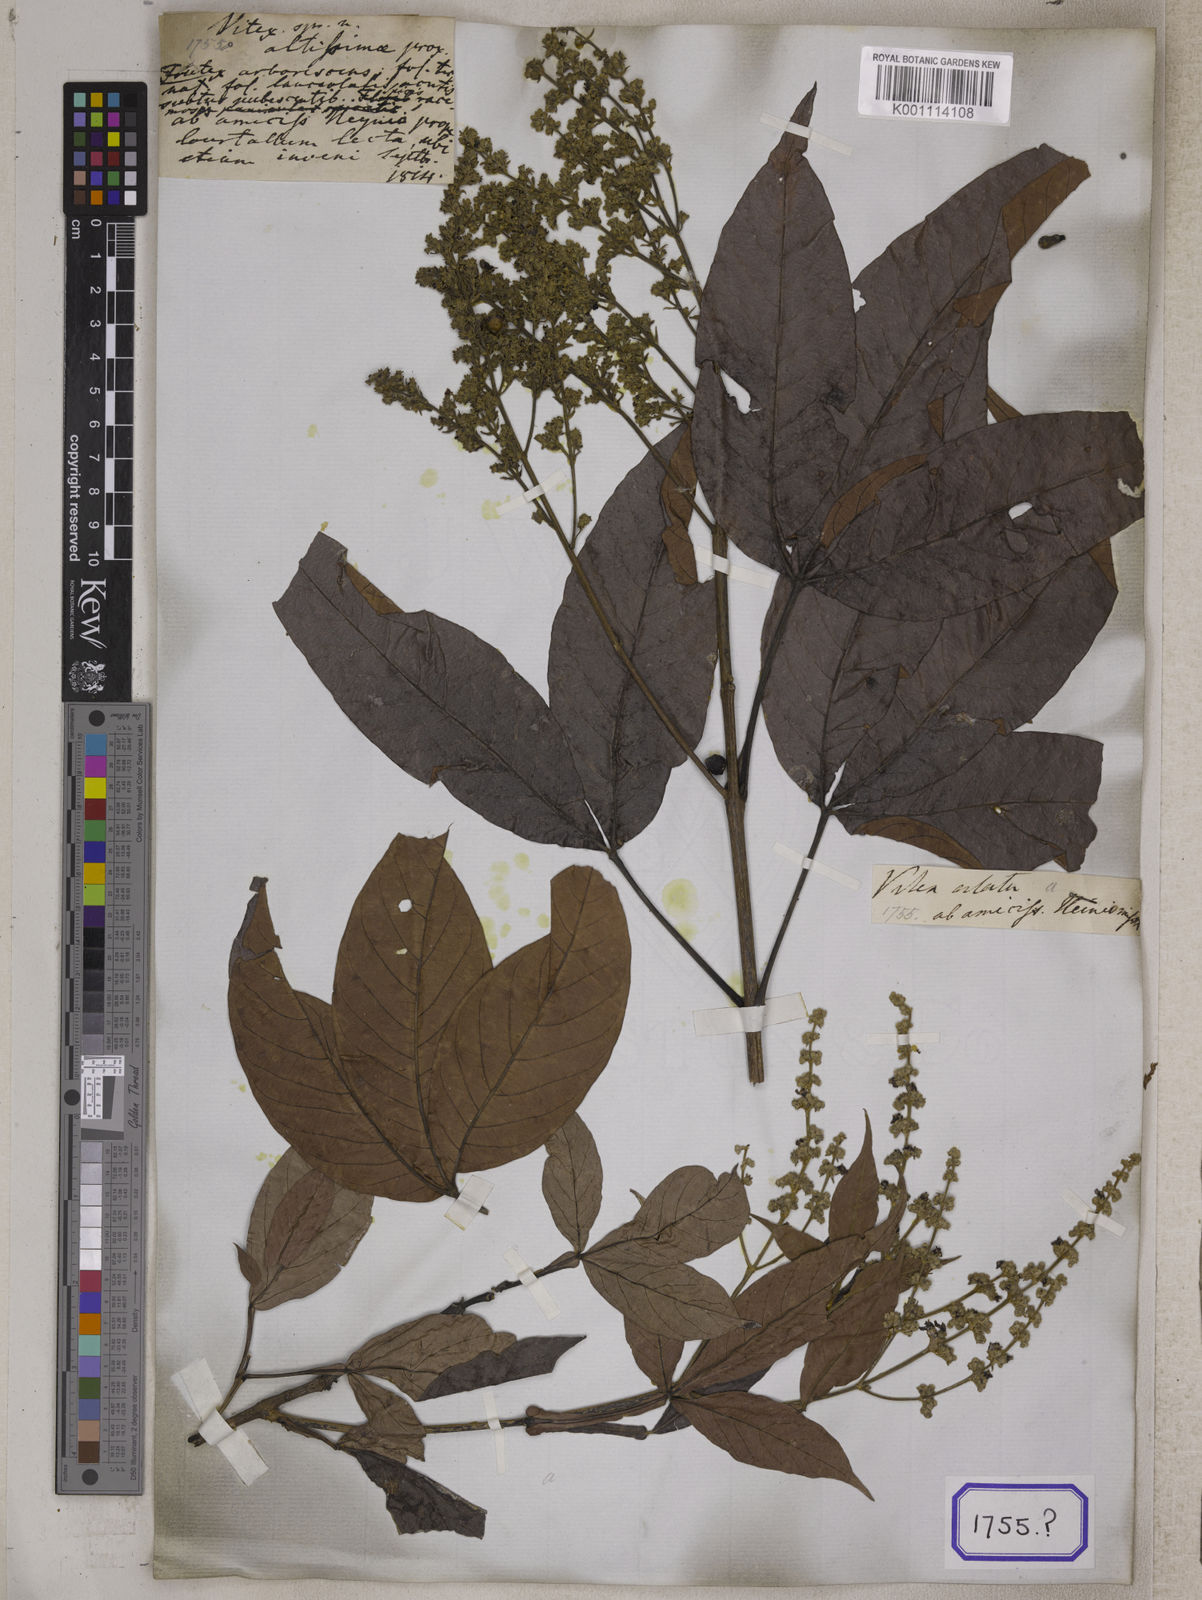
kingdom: Plantae
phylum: Tracheophyta
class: Magnoliopsida
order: Lamiales
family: Lamiaceae
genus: Vitex
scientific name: Vitex altissima
